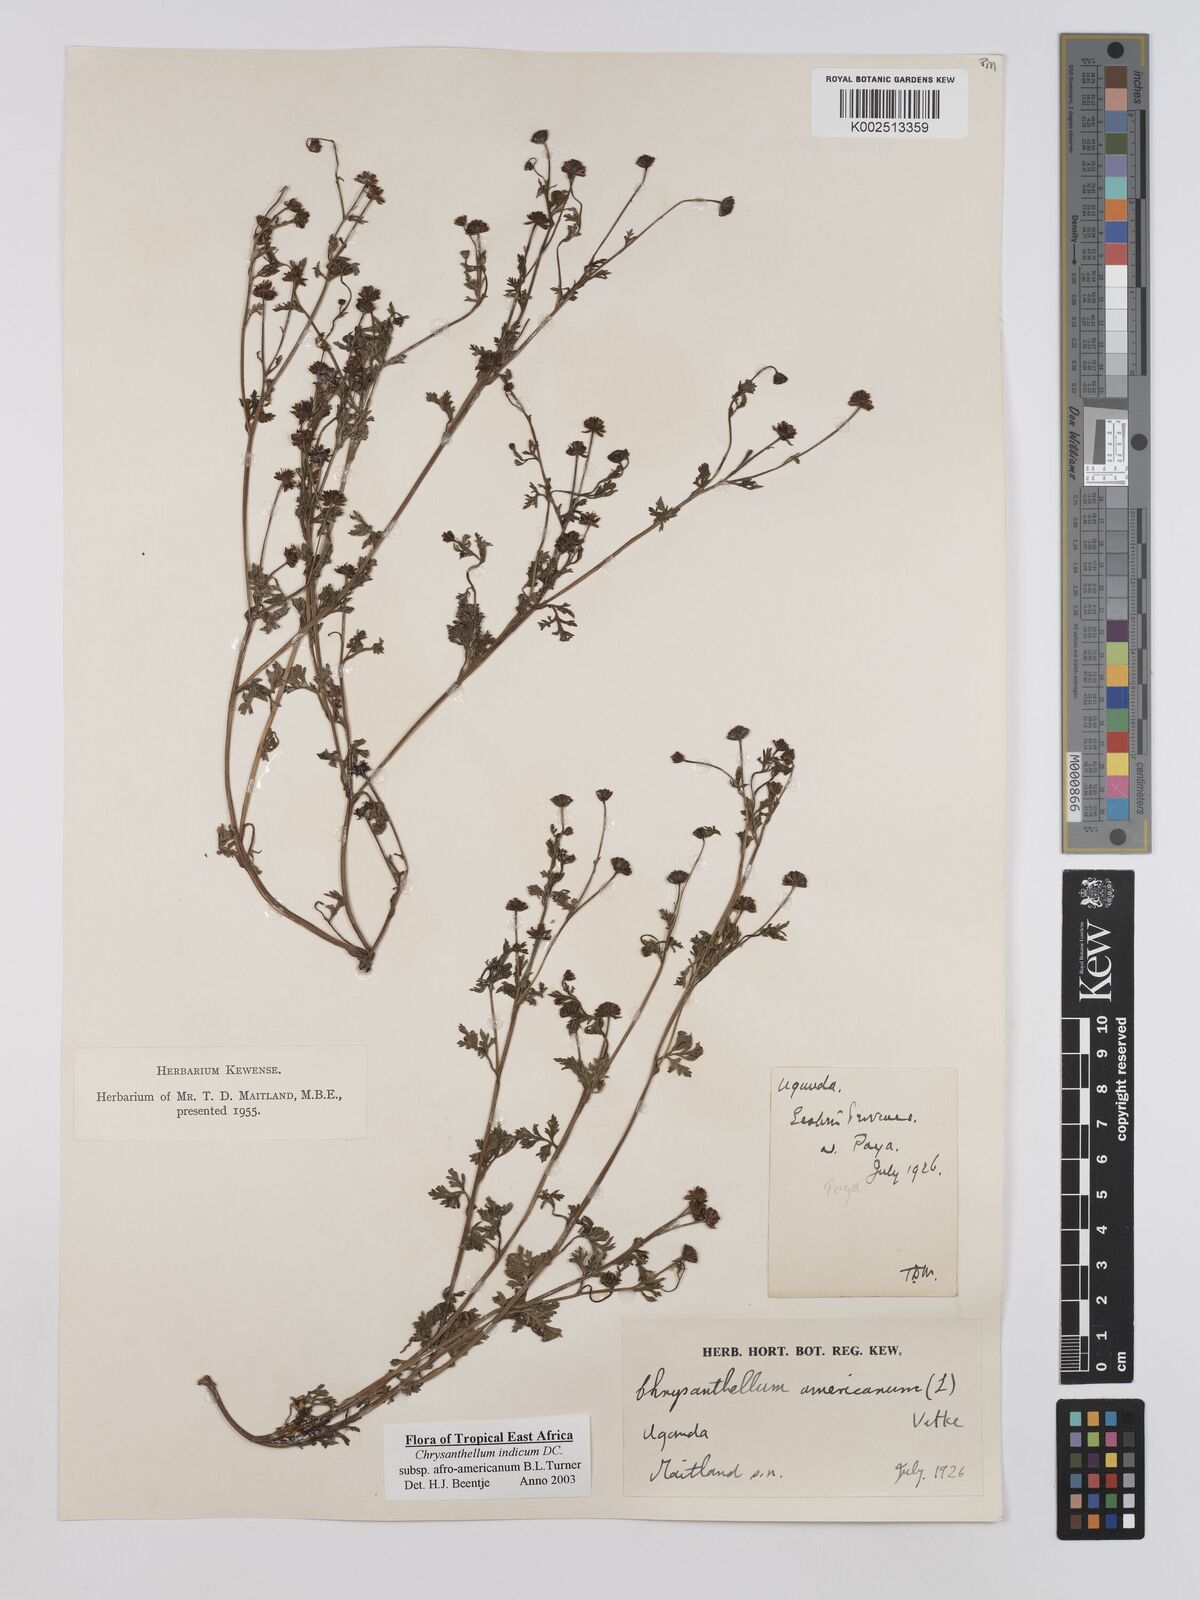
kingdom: Plantae
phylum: Tracheophyta
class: Magnoliopsida
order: Asterales
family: Asteraceae
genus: Chrysanthellum
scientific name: Chrysanthellum indicum
